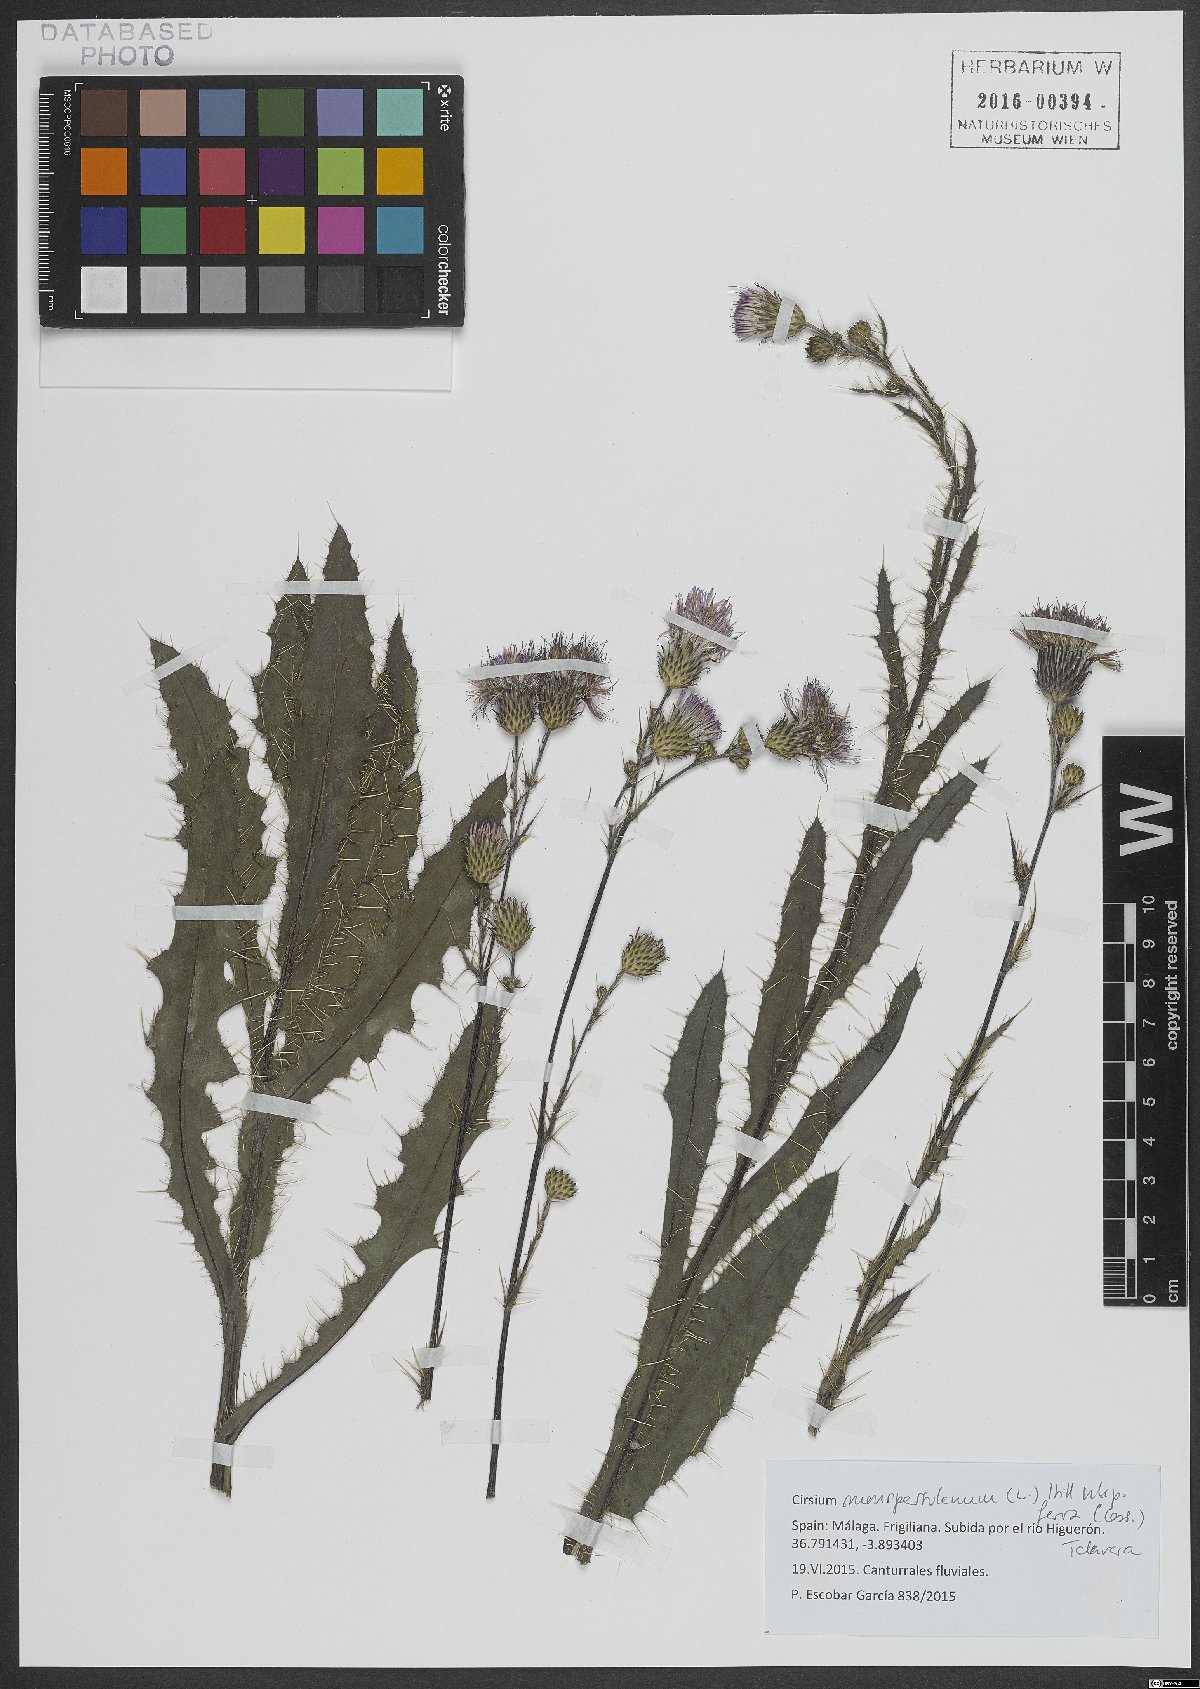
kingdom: Plantae
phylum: Tracheophyta
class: Magnoliopsida
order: Asterales
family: Asteraceae
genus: Cirsium
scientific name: Cirsium monspessulanum
